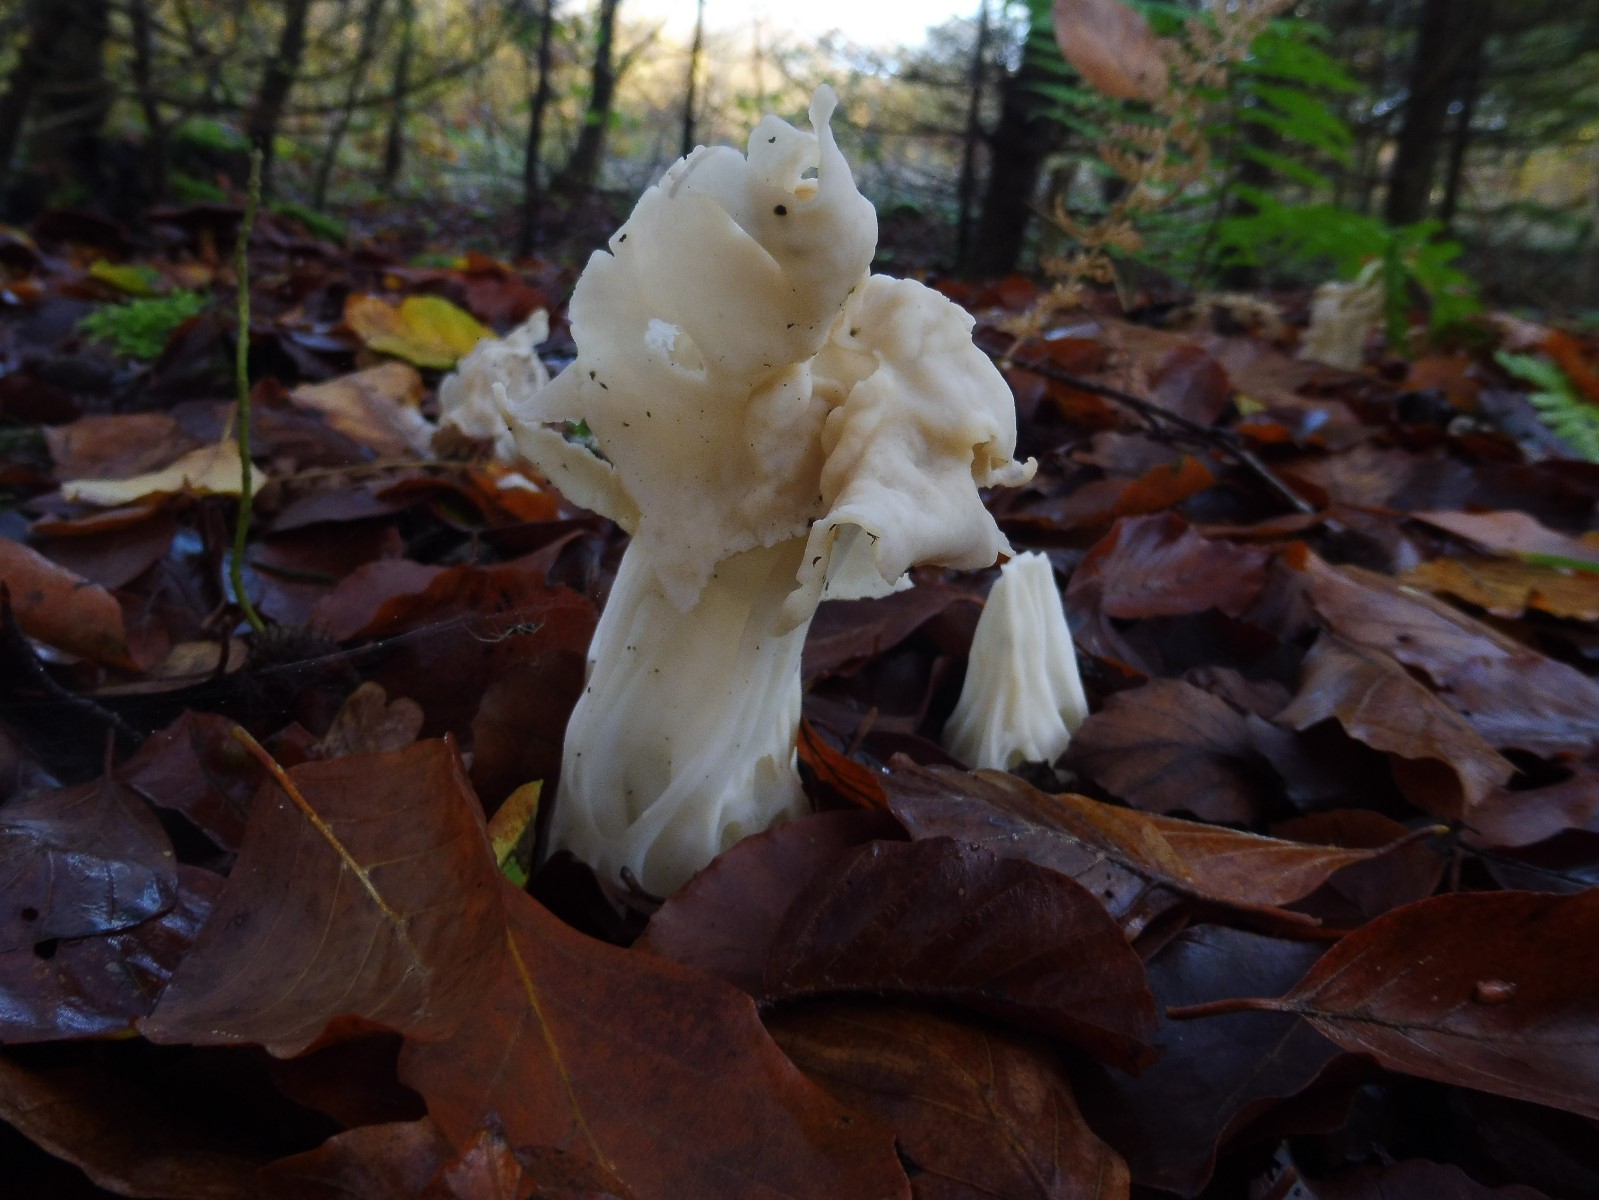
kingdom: Fungi
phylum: Ascomycota
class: Pezizomycetes
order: Pezizales
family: Helvellaceae
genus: Helvella
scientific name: Helvella crispa
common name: kruset foldhat
